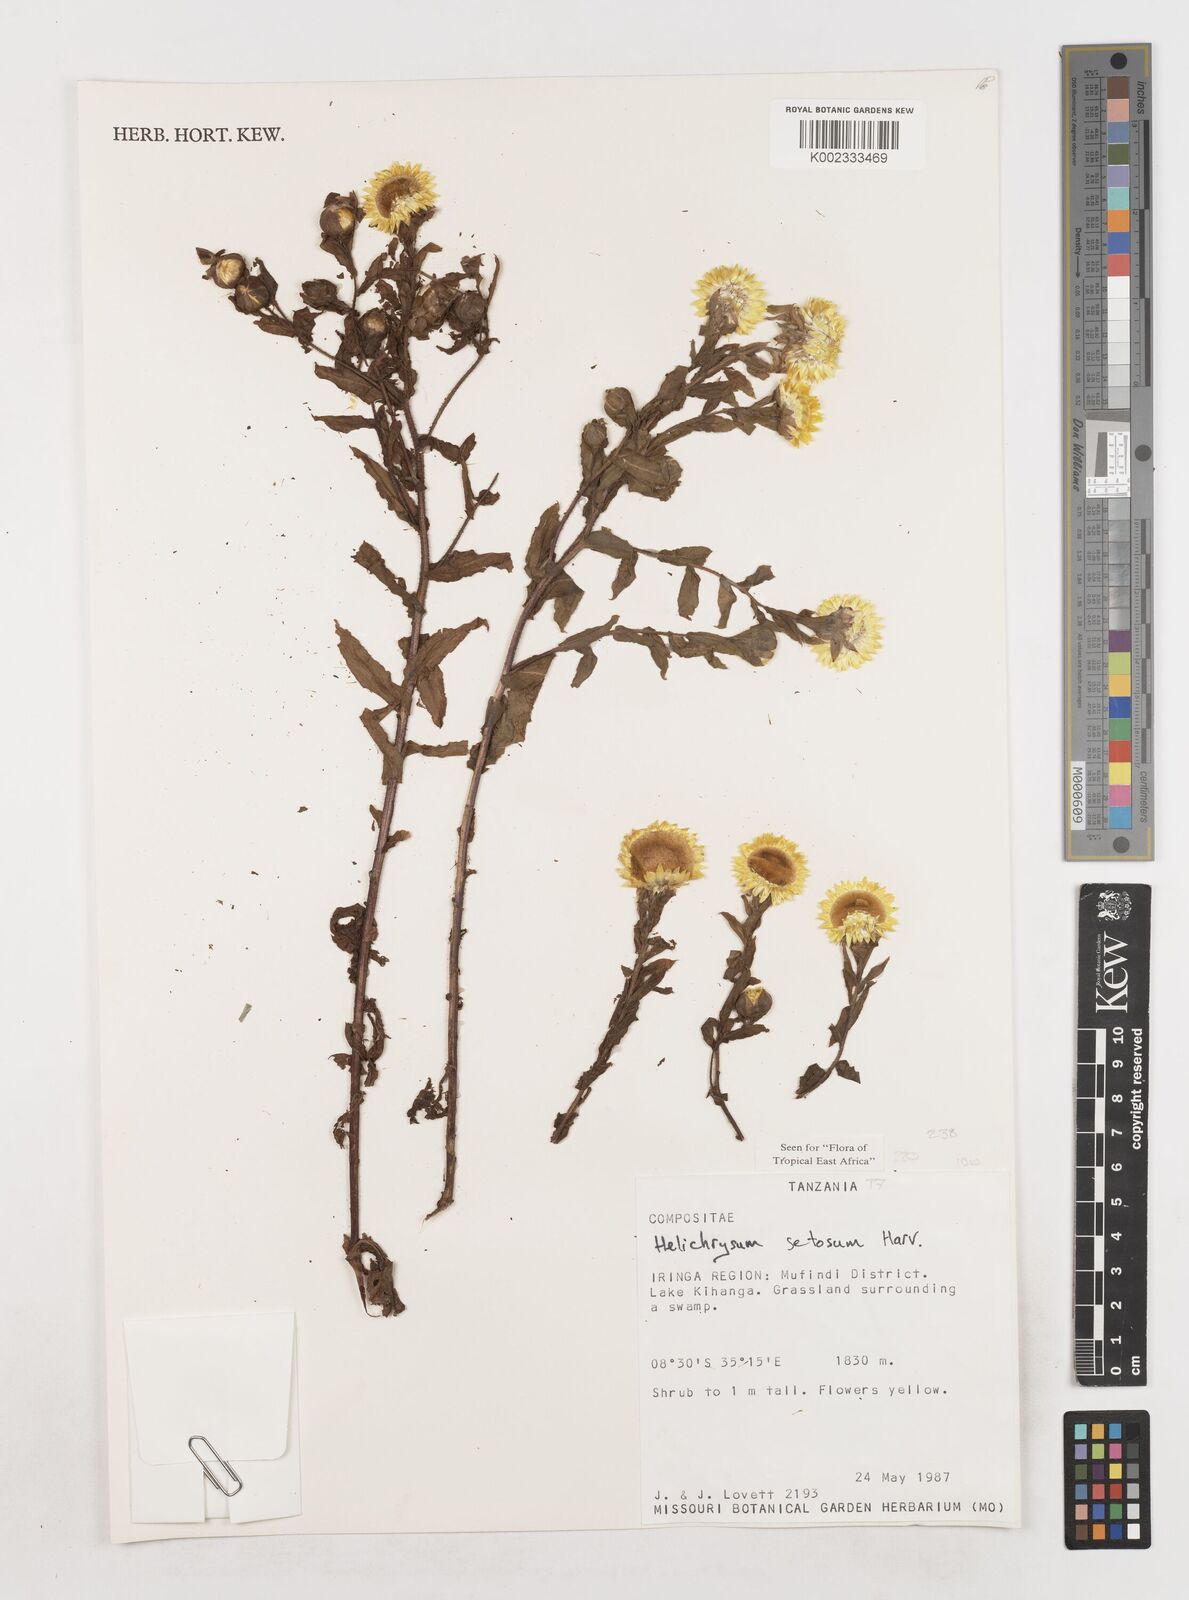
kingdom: Plantae
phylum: Tracheophyta
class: Magnoliopsida
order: Asterales
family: Asteraceae
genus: Helichrysum
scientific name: Helichrysum setosum
